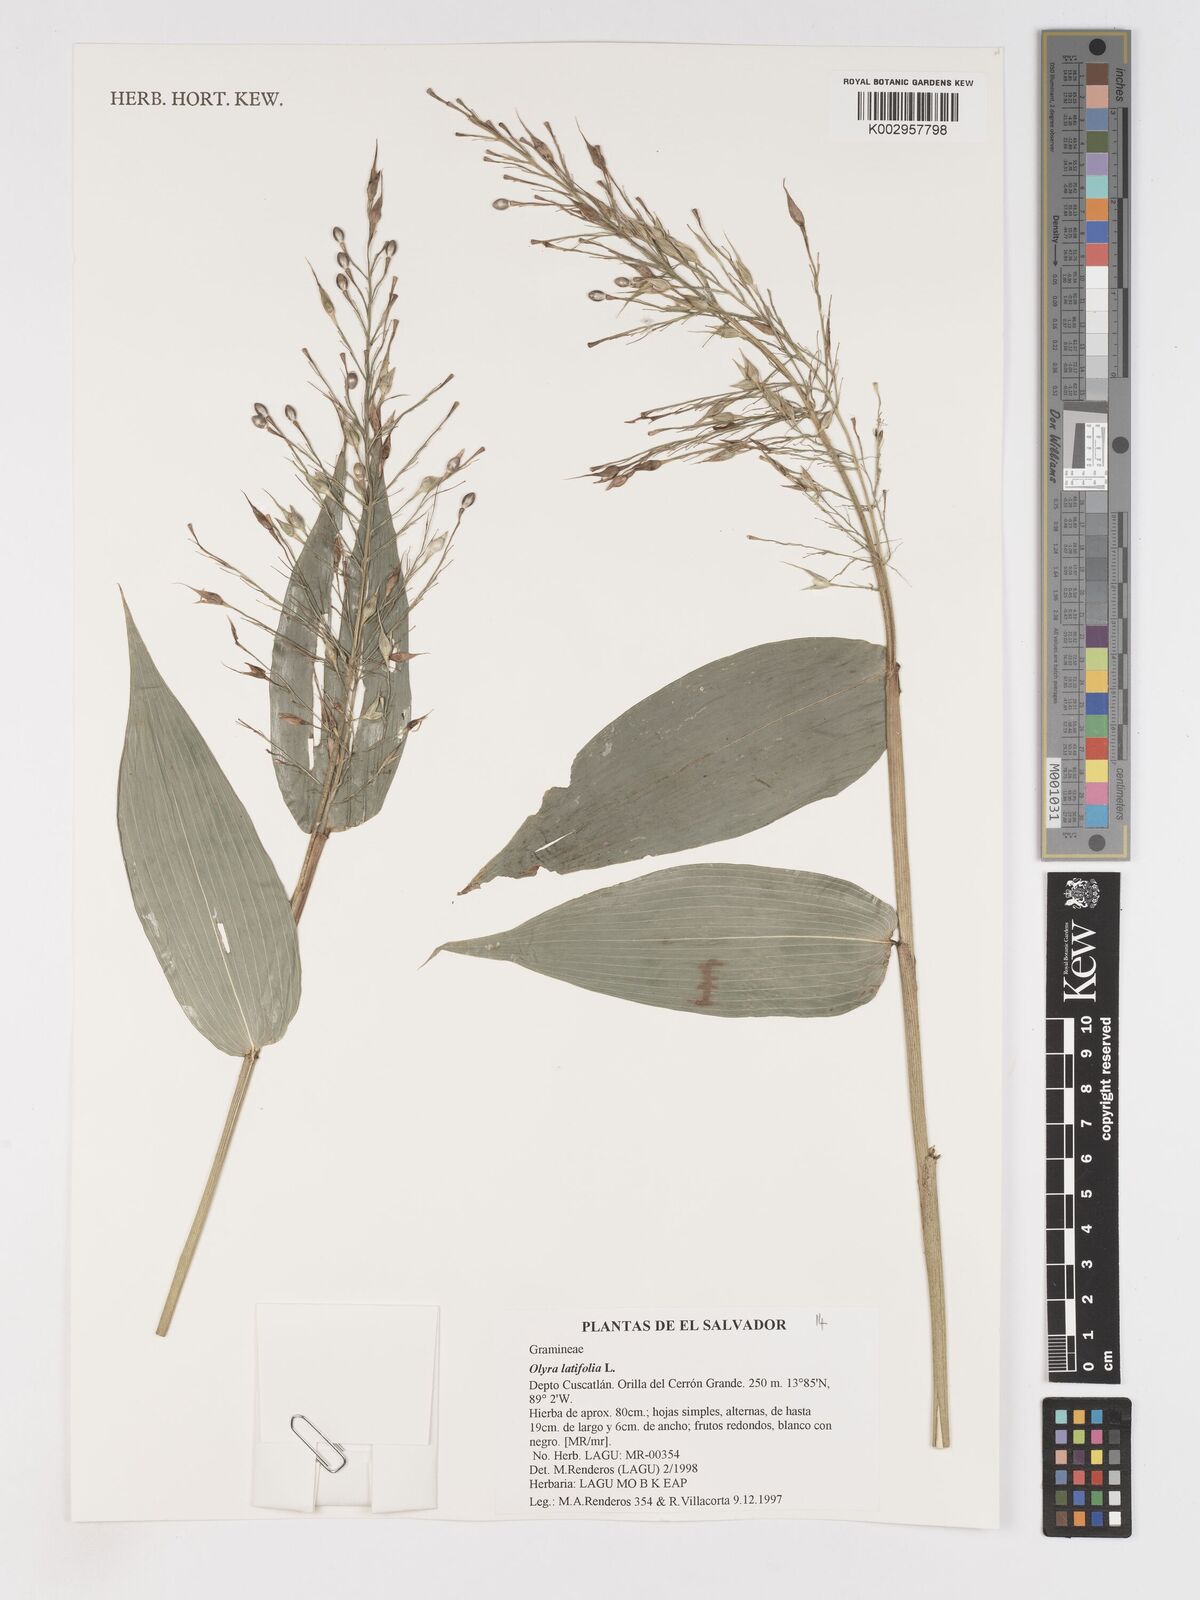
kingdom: Plantae
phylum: Tracheophyta
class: Liliopsida
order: Poales
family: Poaceae
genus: Olyra
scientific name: Olyra latifolia
